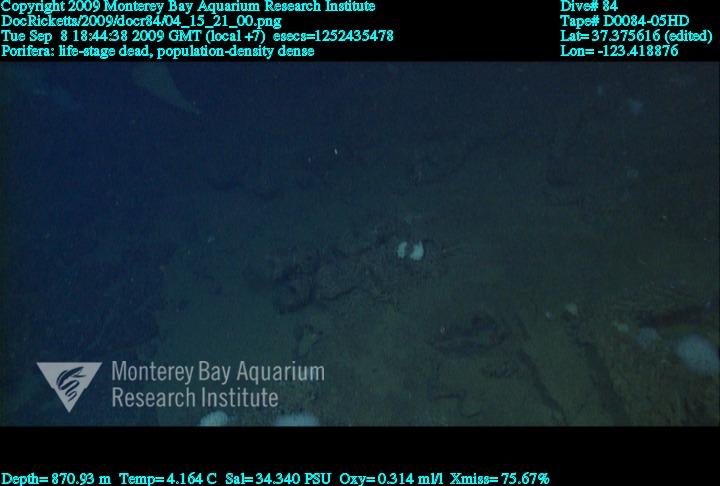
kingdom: Animalia
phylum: Porifera
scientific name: Porifera
